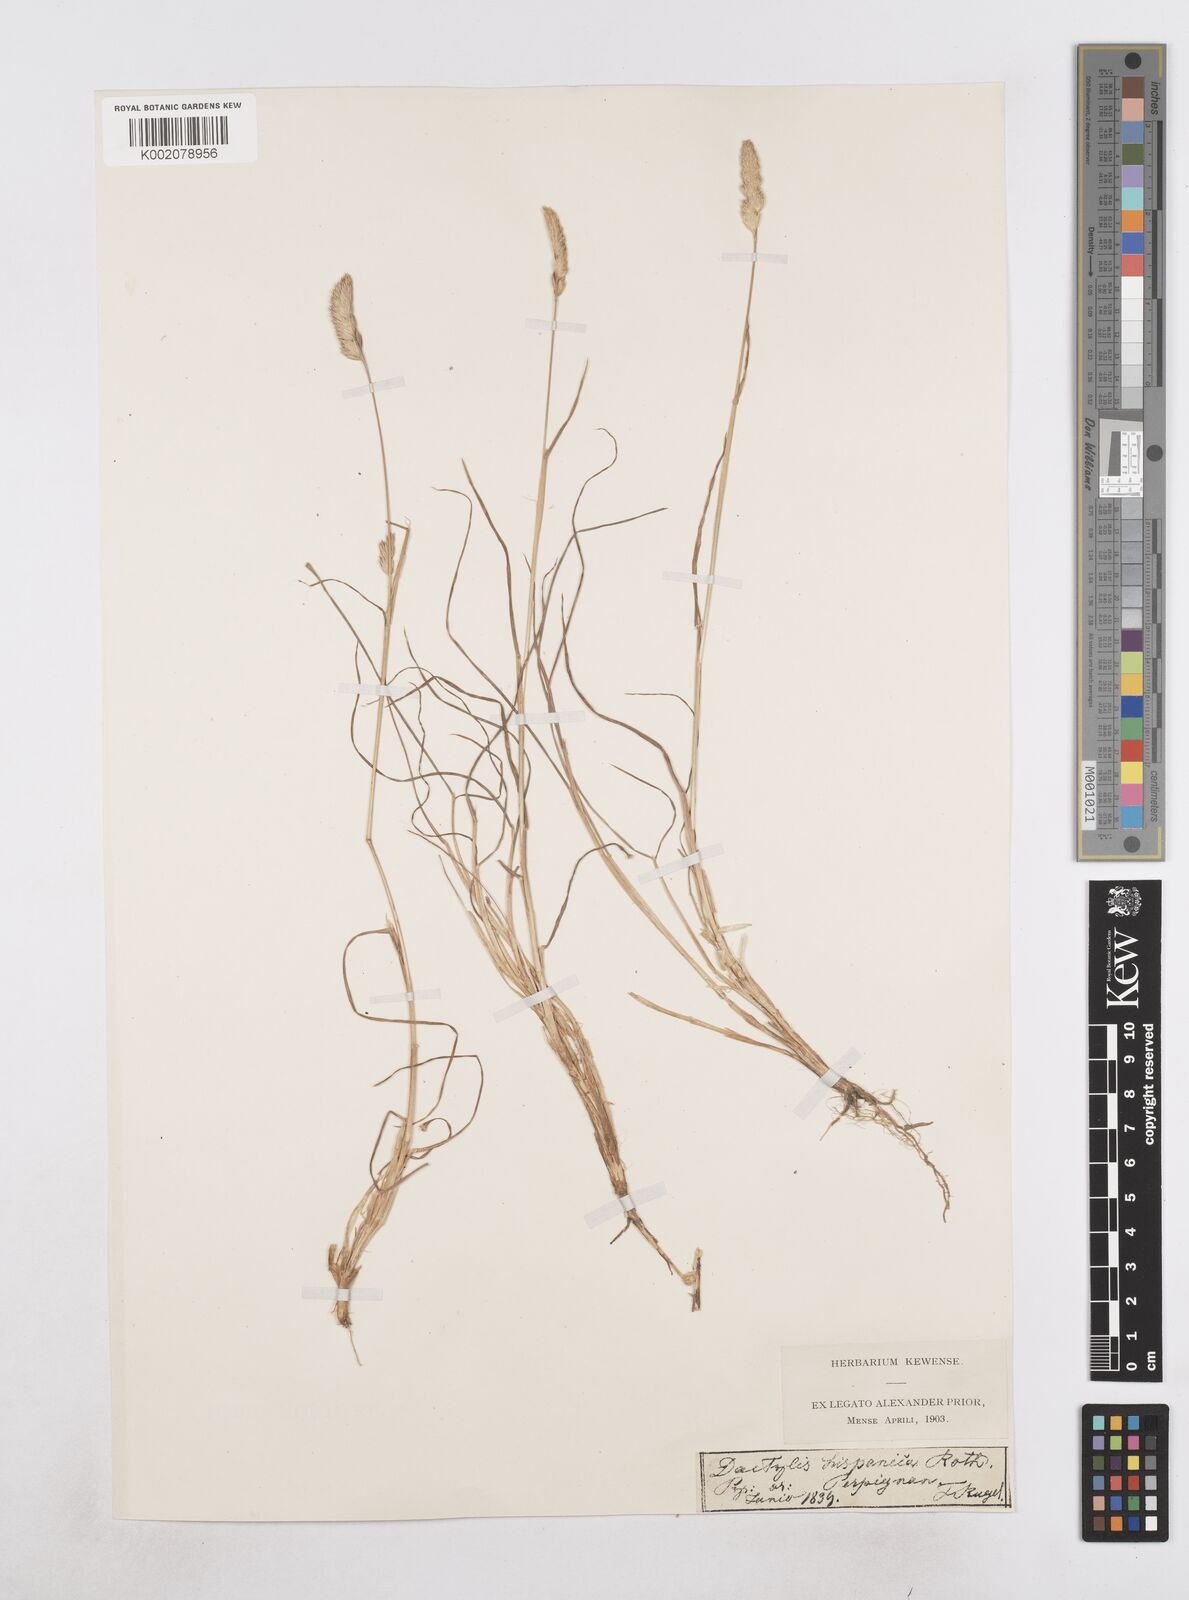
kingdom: Plantae
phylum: Tracheophyta
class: Liliopsida
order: Poales
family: Poaceae
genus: Dactylis
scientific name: Dactylis glomerata
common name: Orchardgrass
